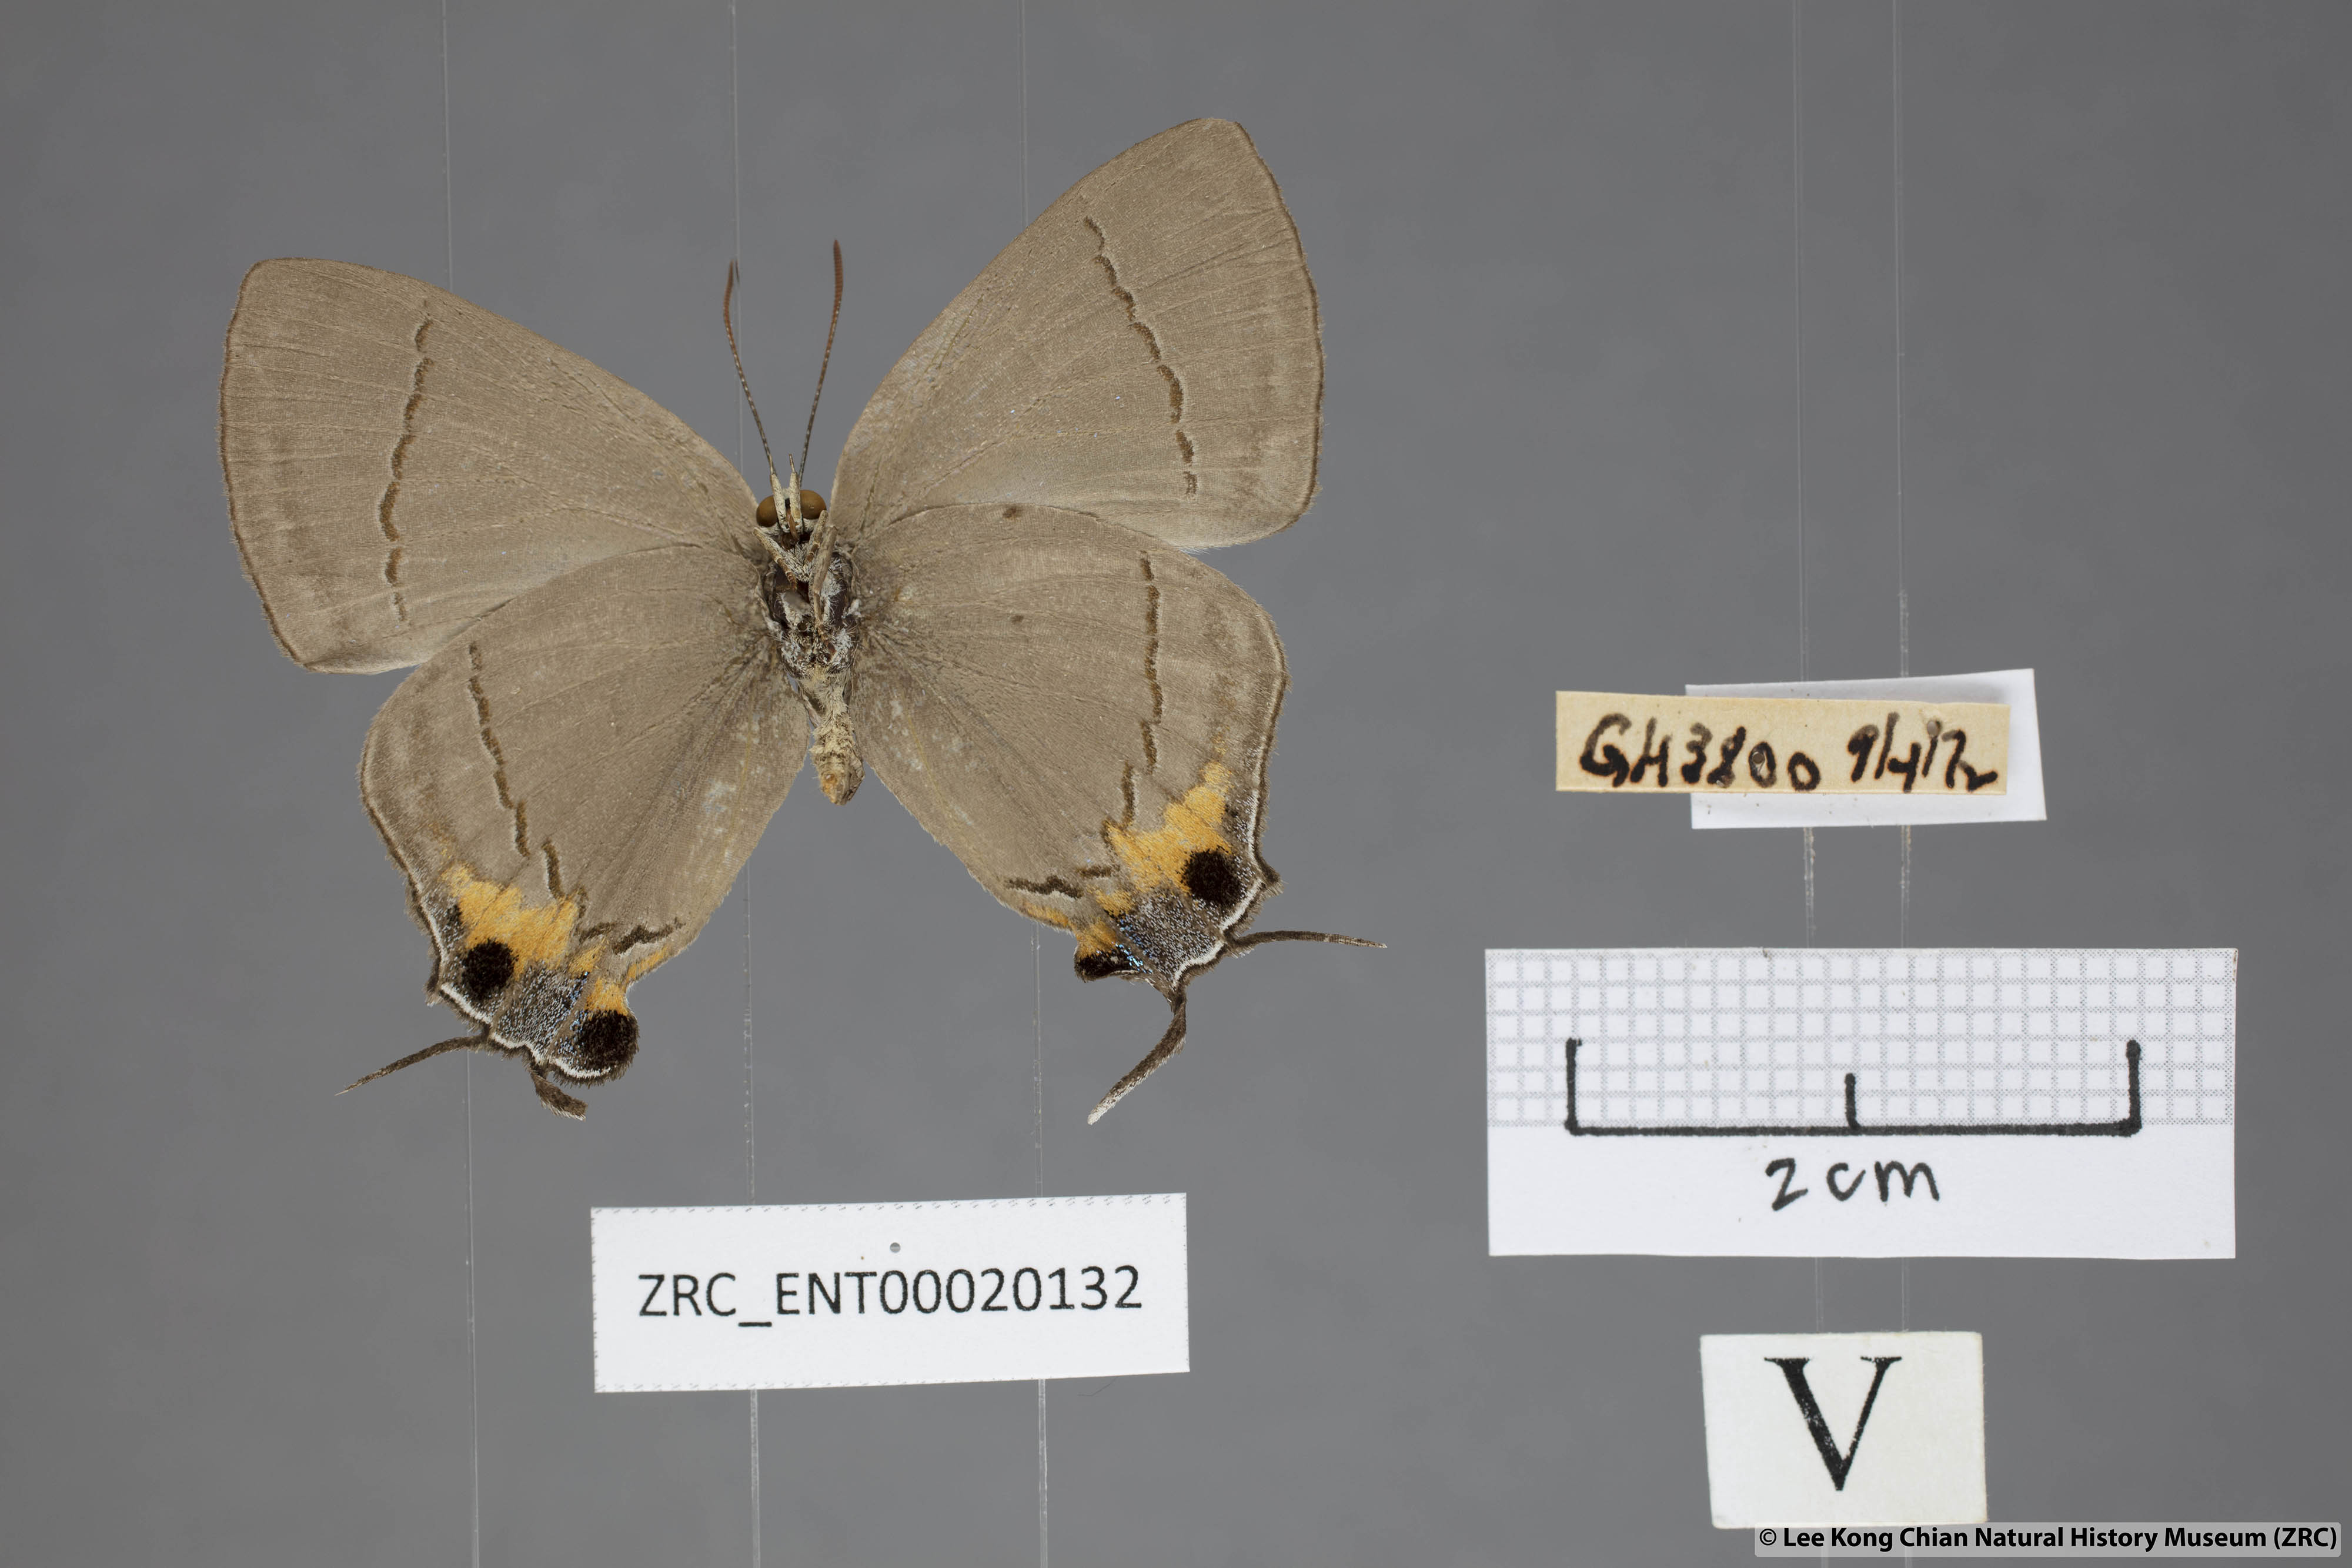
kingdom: Animalia
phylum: Arthropoda
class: Insecta
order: Lepidoptera
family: Lycaenidae
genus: Creon
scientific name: Creon cleobis
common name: Broad-tail royal
